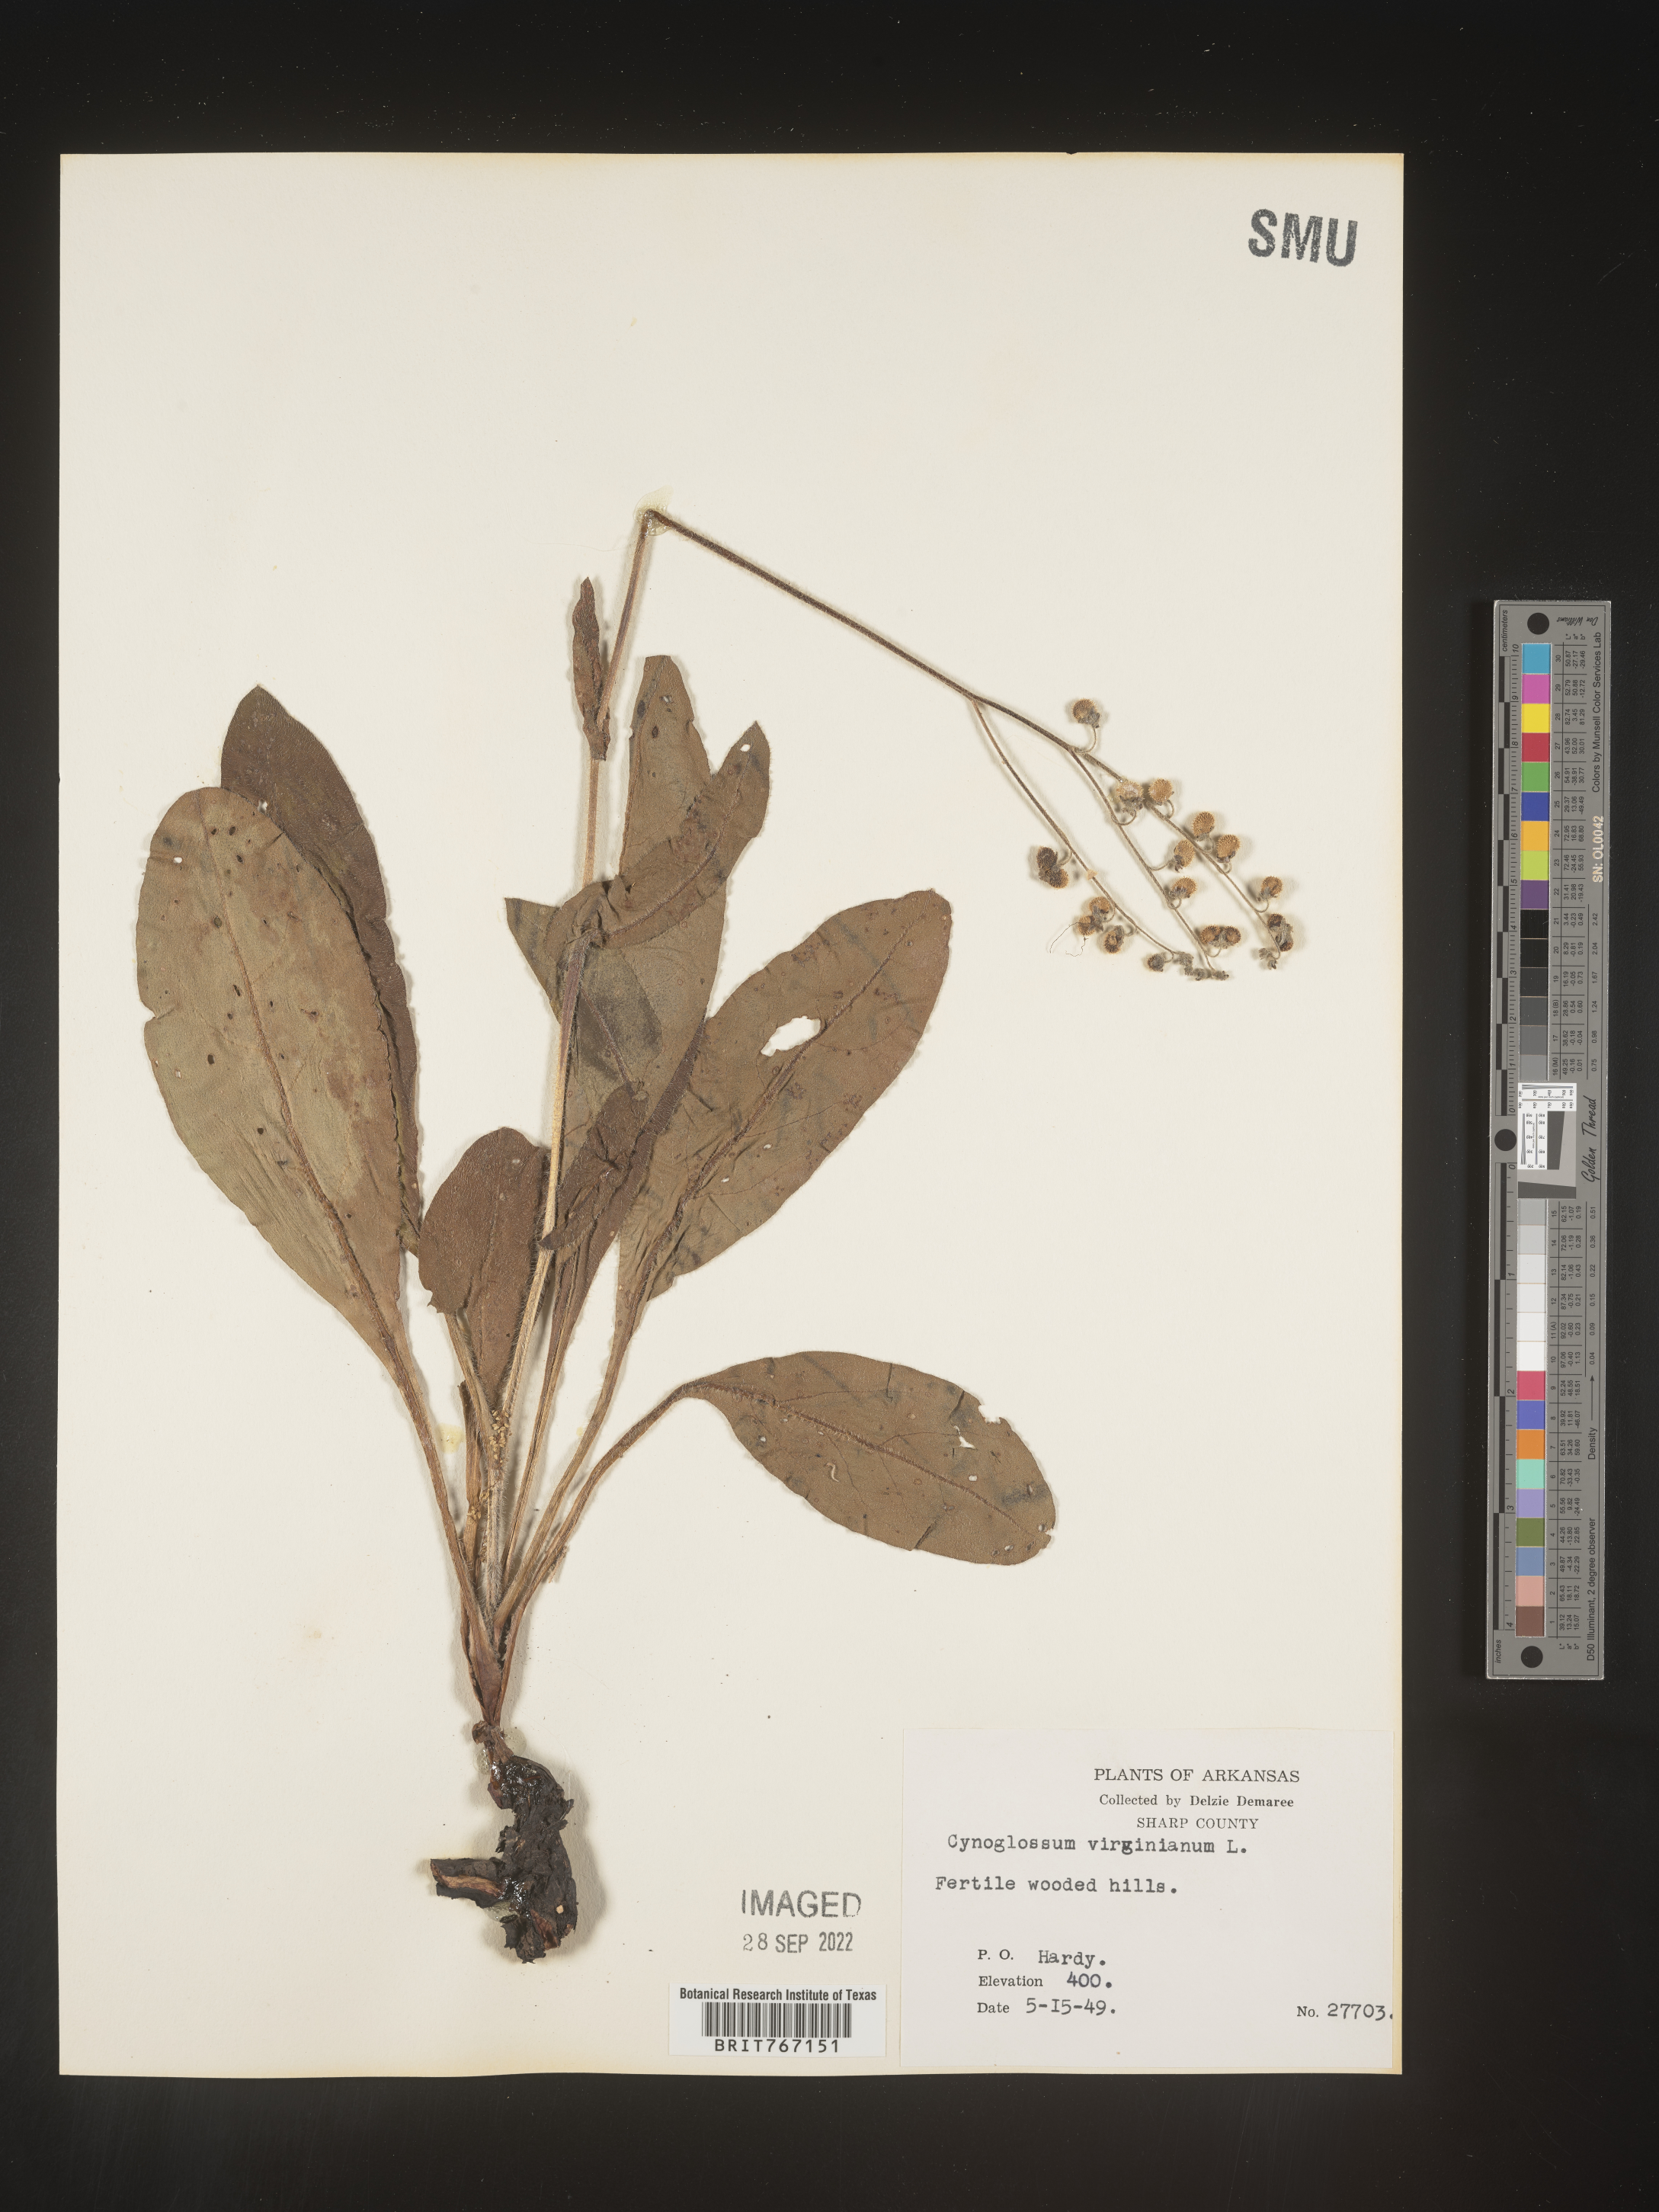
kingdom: Plantae
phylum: Tracheophyta
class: Magnoliopsida
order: Boraginales
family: Boraginaceae
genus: Andersonglossum
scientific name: Andersonglossum virginianum
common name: Wild comfrey
